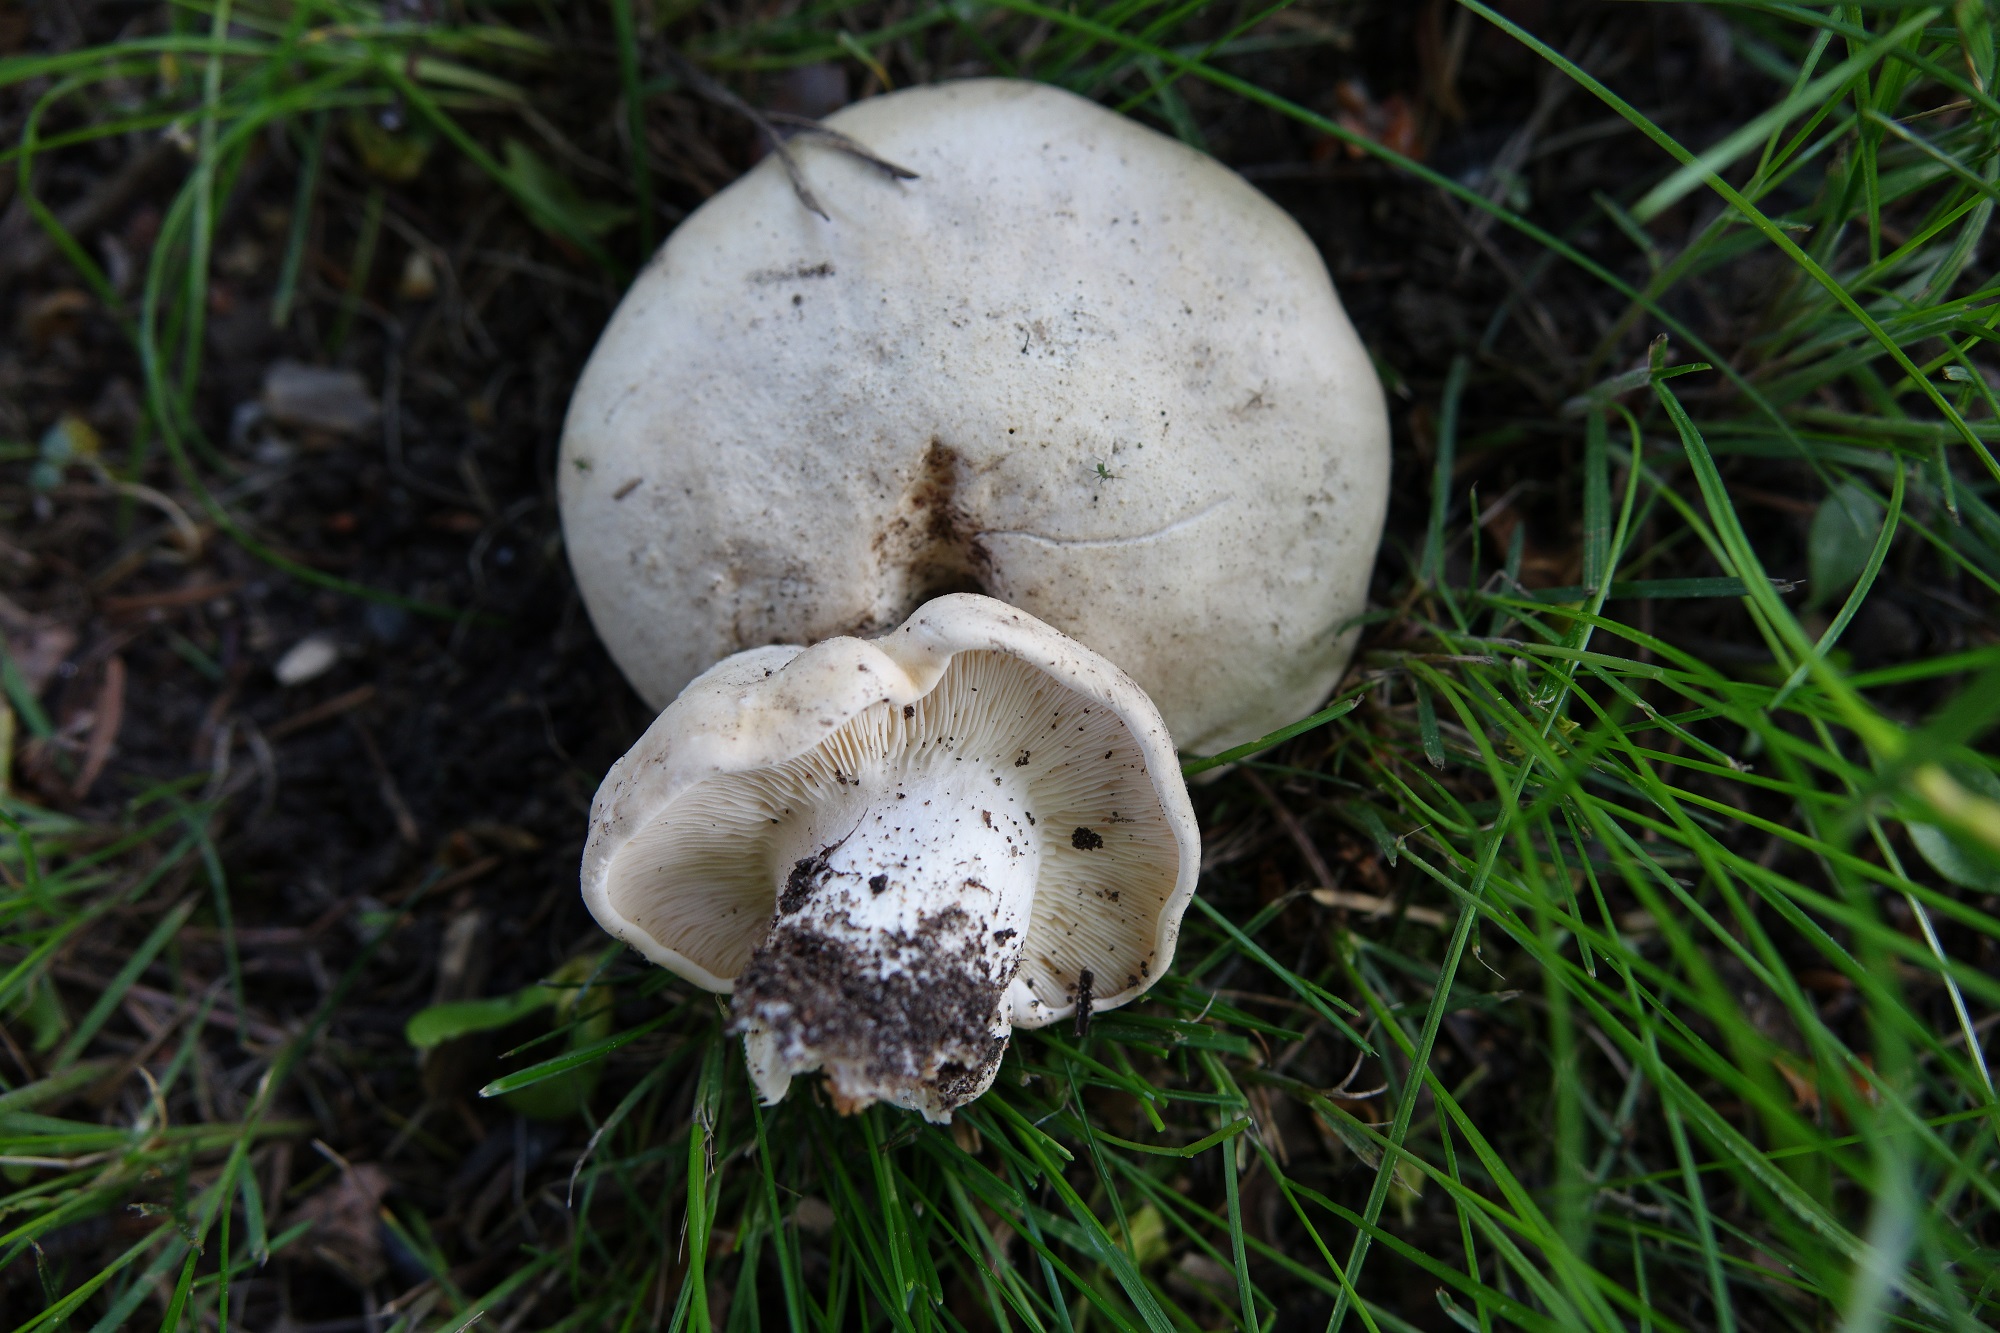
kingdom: Fungi
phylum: Basidiomycota
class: Agaricomycetes
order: Agaricales
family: Lyophyllaceae
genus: Calocybe
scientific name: Calocybe gambosa
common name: St. george's mushroom
